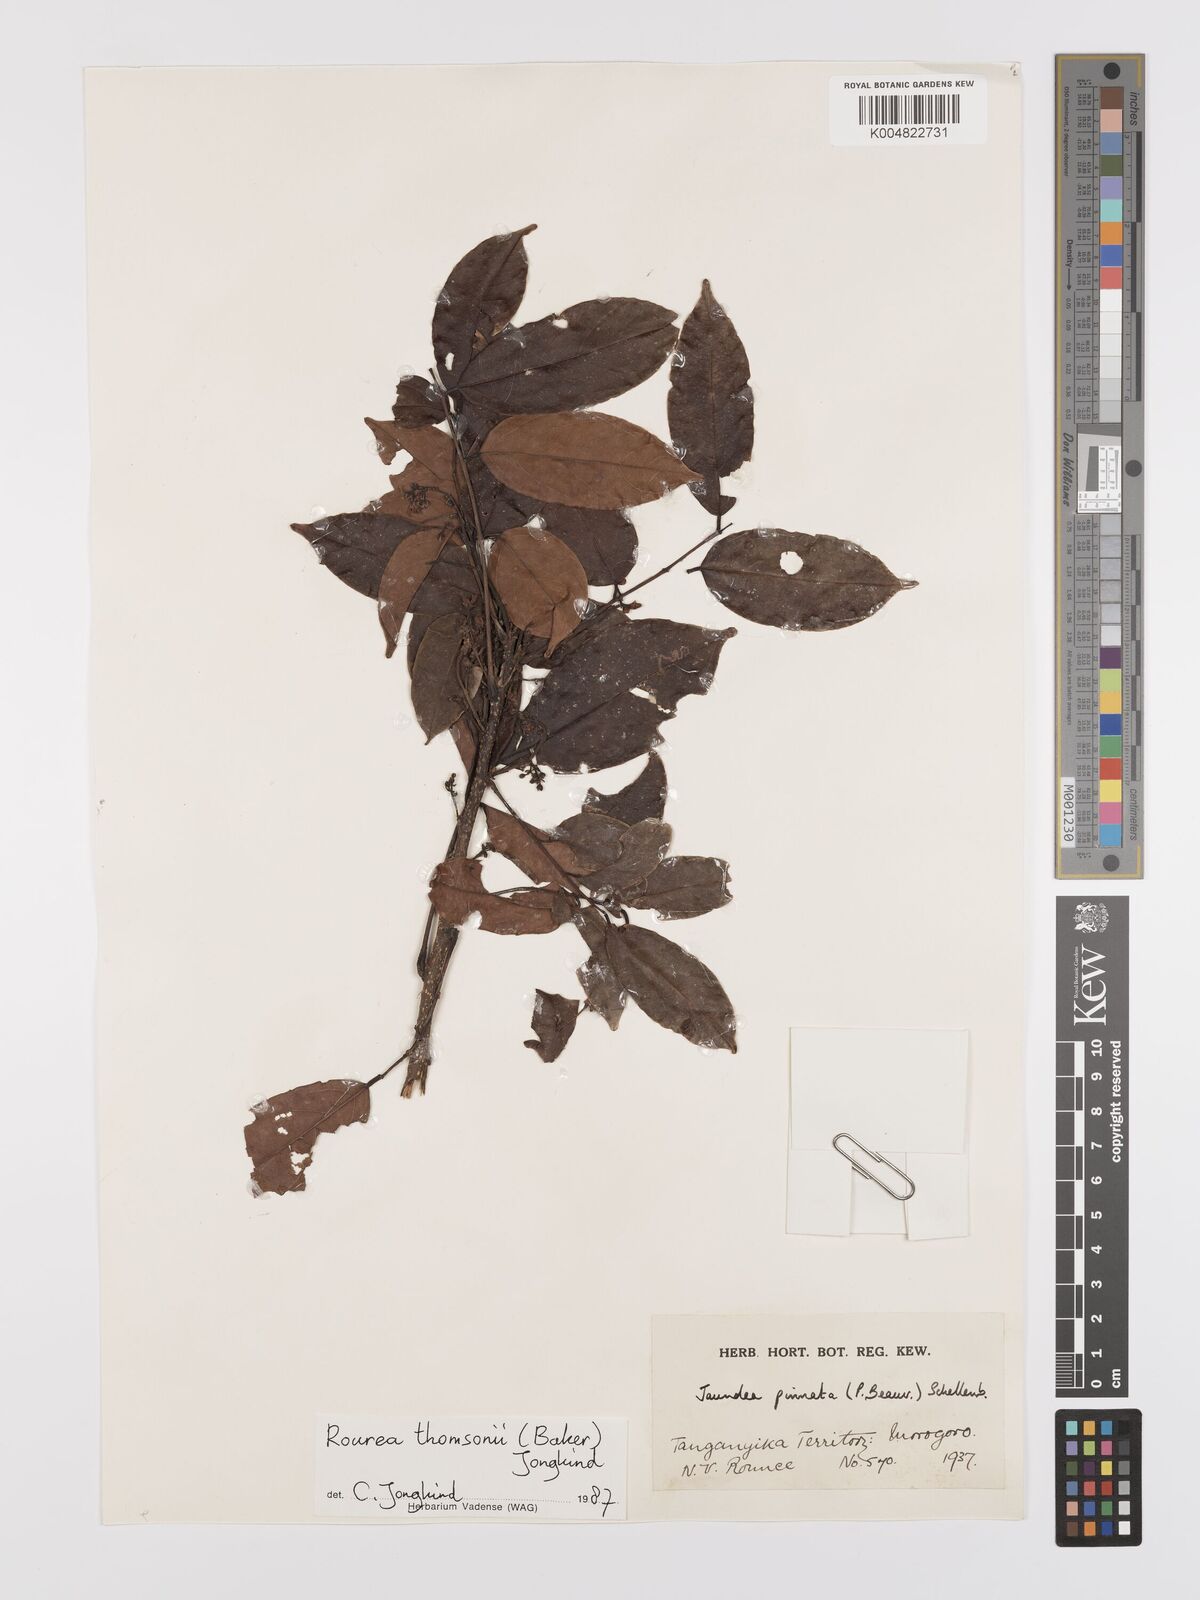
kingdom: Plantae
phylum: Tracheophyta
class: Magnoliopsida
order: Oxalidales
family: Connaraceae
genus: Rourea
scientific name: Rourea pinnata
